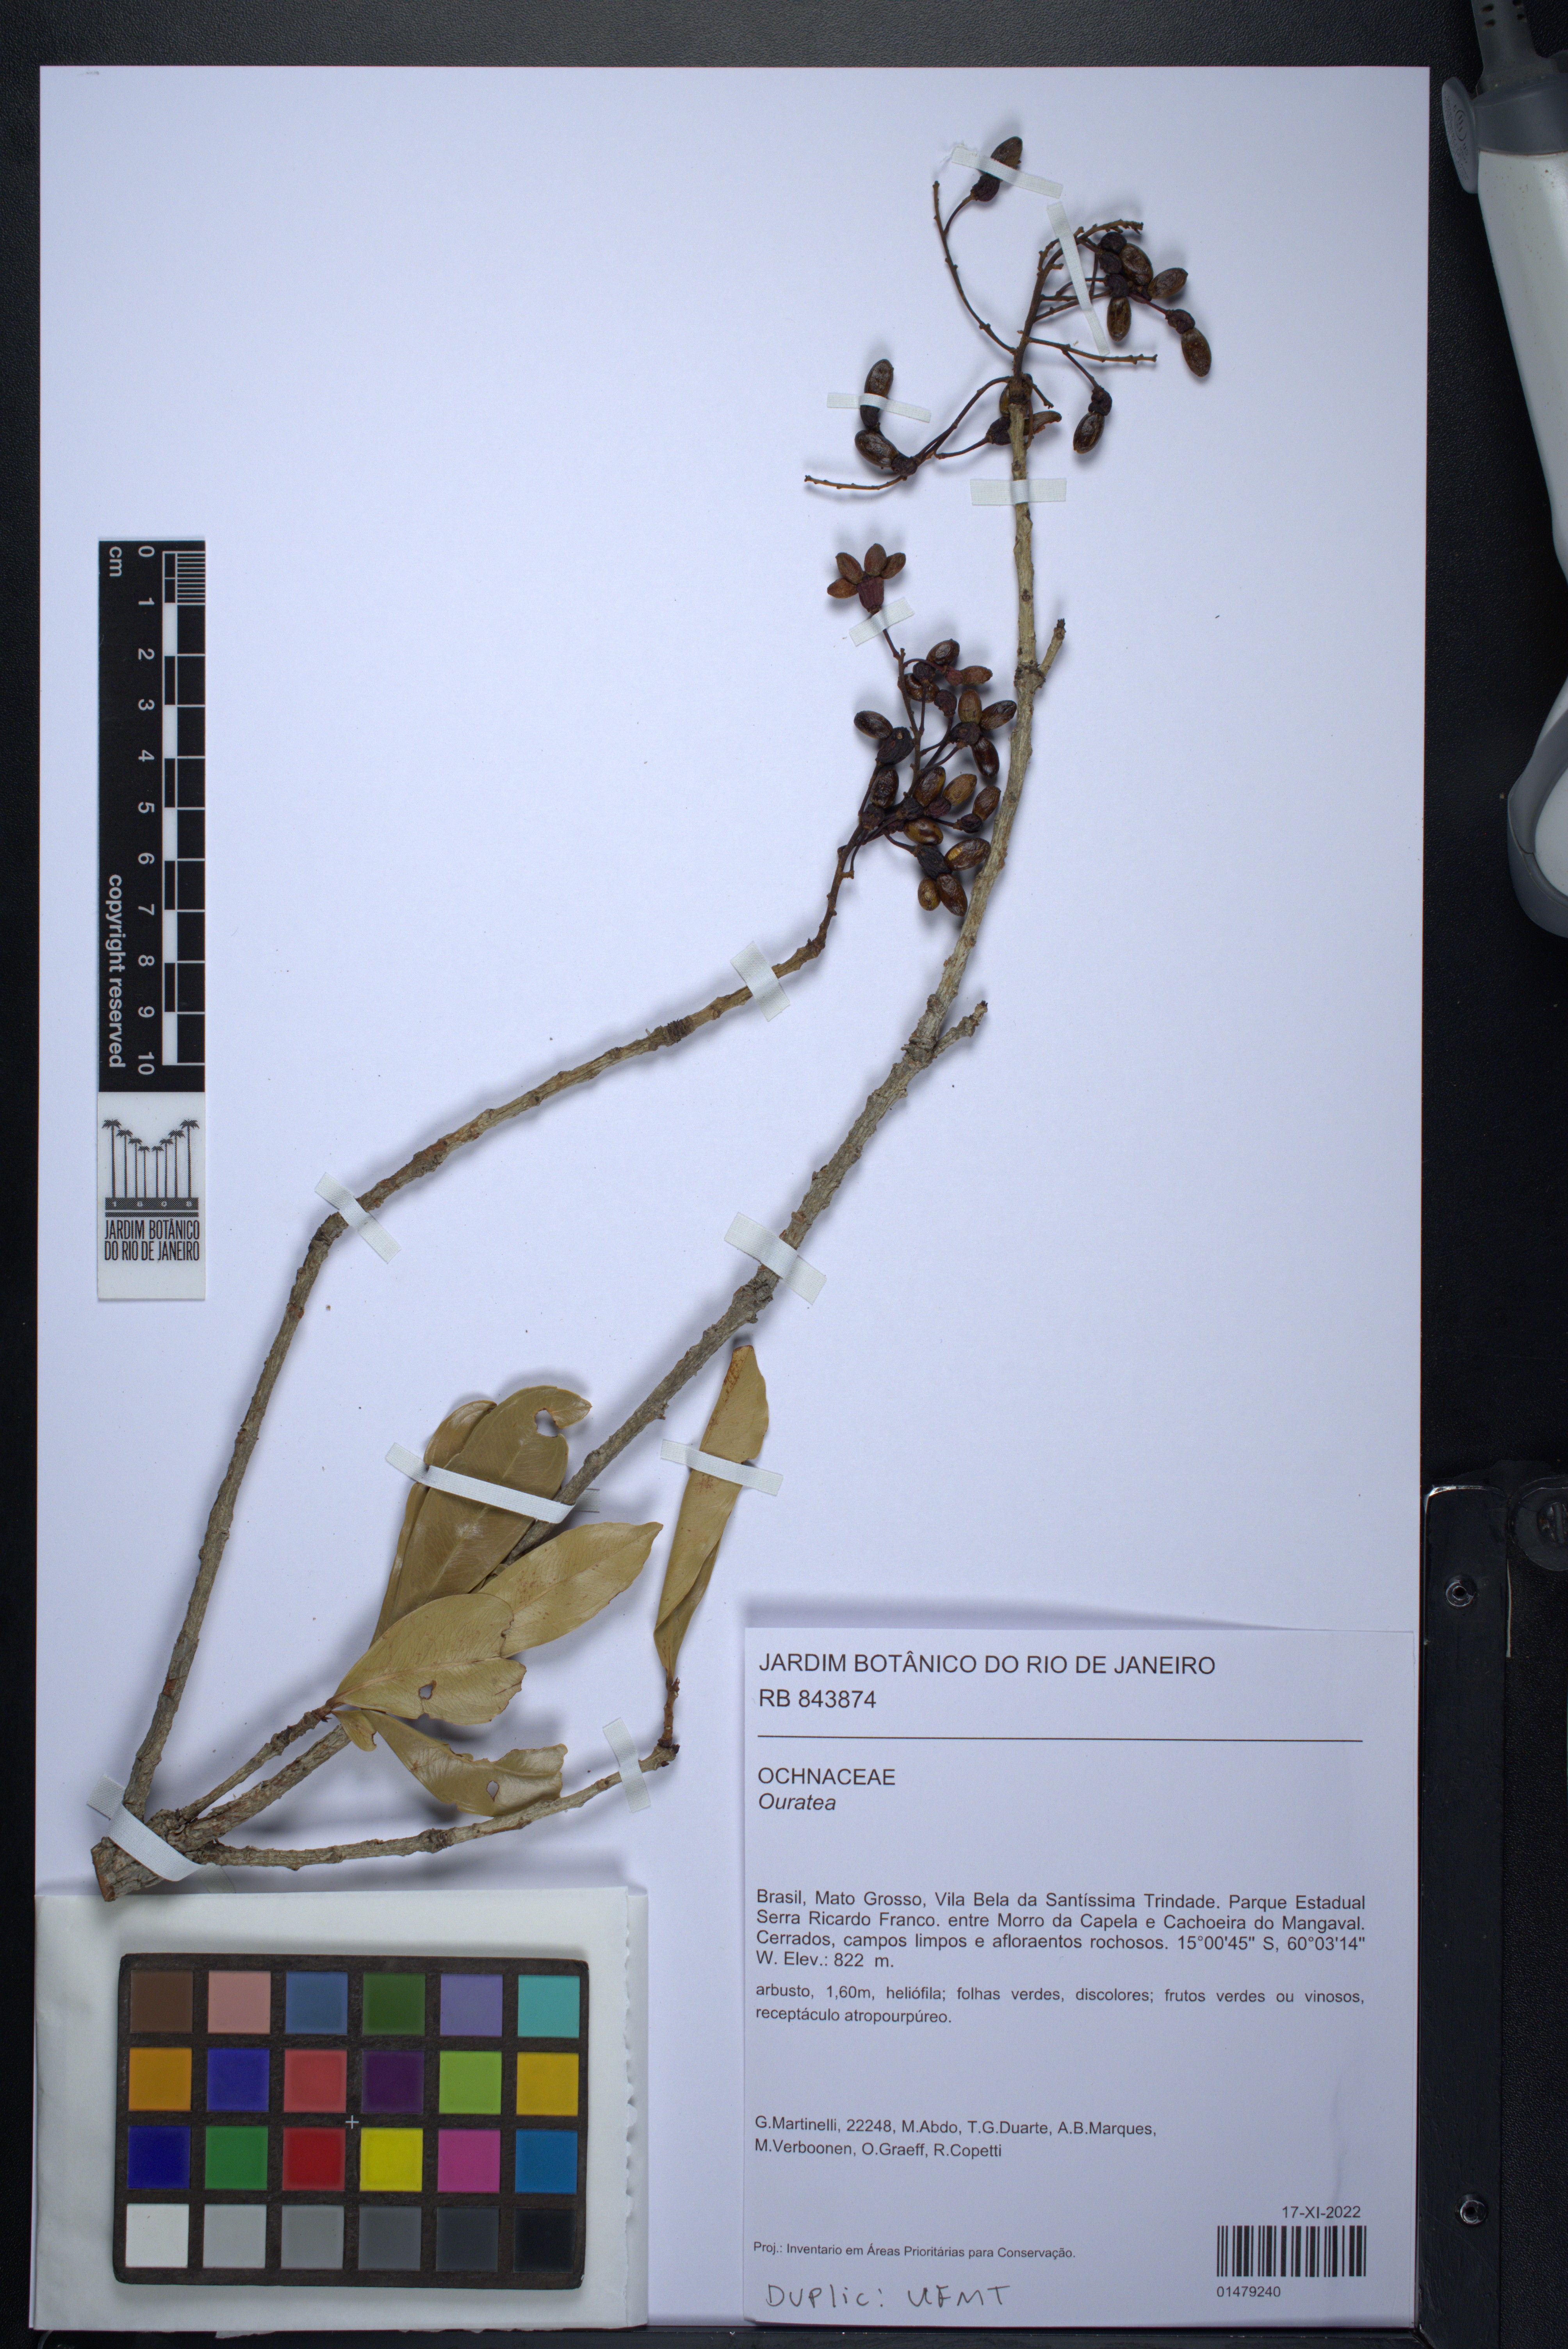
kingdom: Plantae
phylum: Tracheophyta
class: Magnoliopsida
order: Malpighiales
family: Ochnaceae
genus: Ouratea
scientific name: Ouratea
